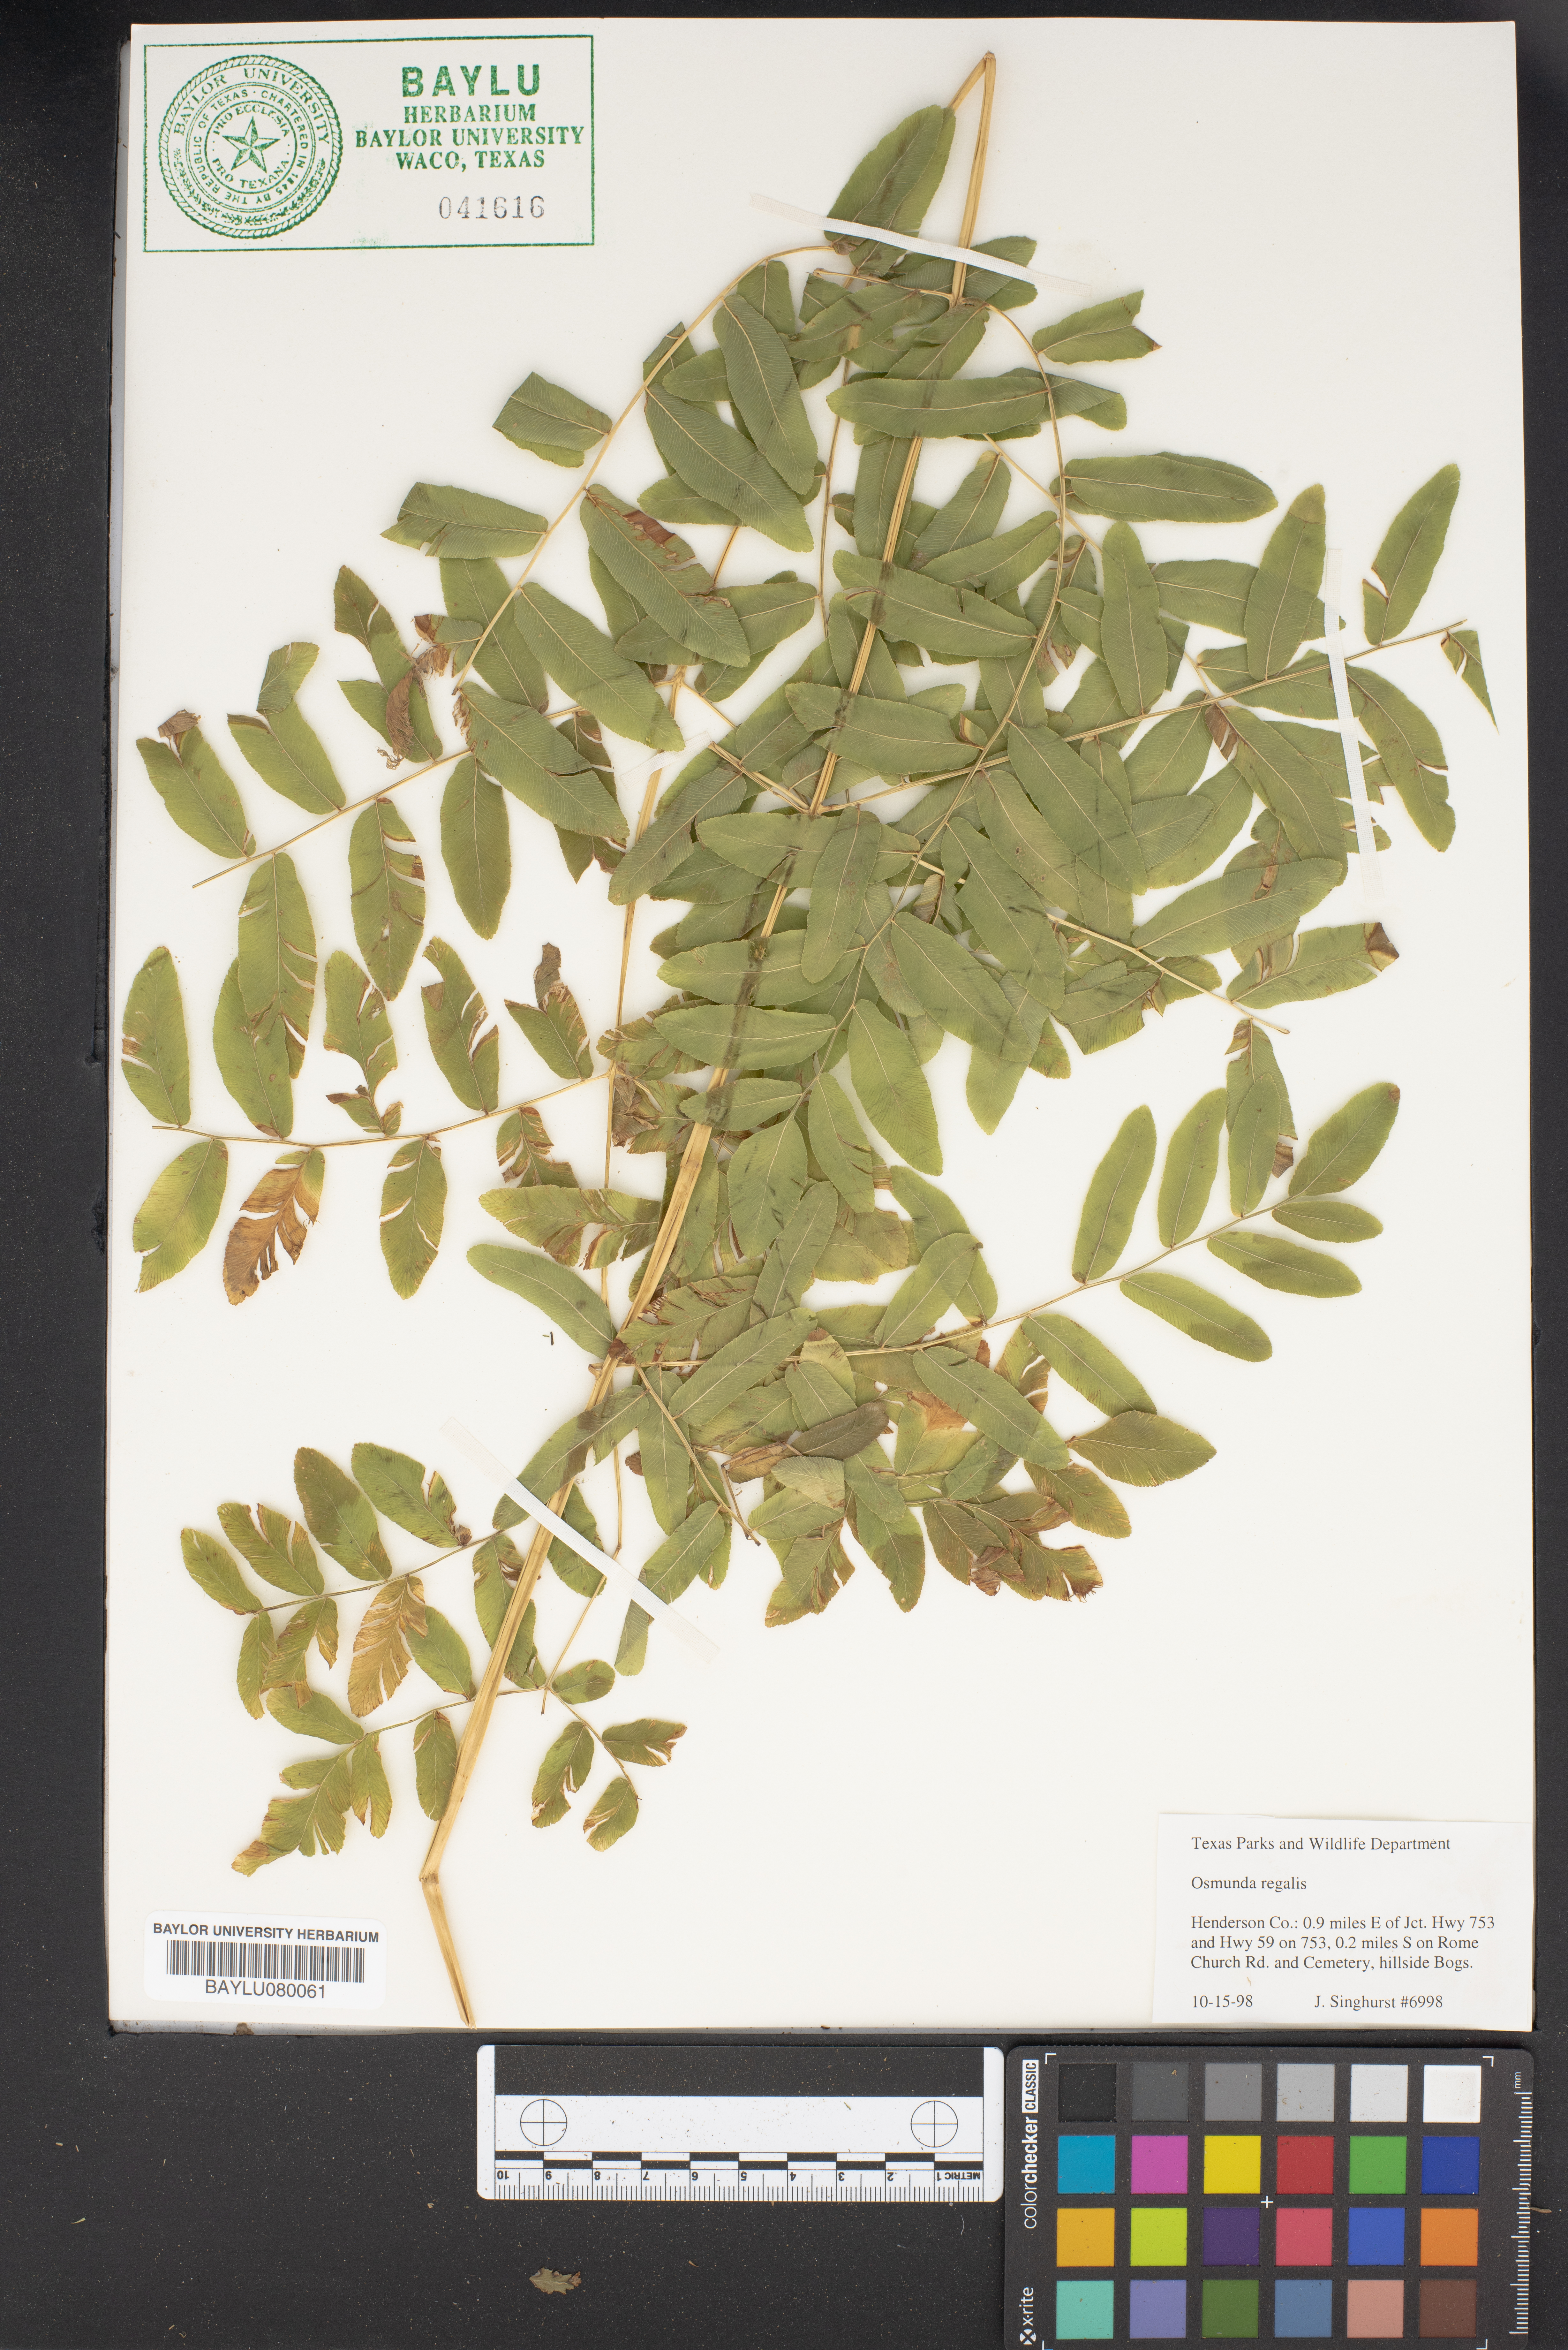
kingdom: Plantae
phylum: Tracheophyta
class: Polypodiopsida
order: Osmundales
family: Osmundaceae
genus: Osmunda
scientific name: Osmunda regalis
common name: Royal fern
